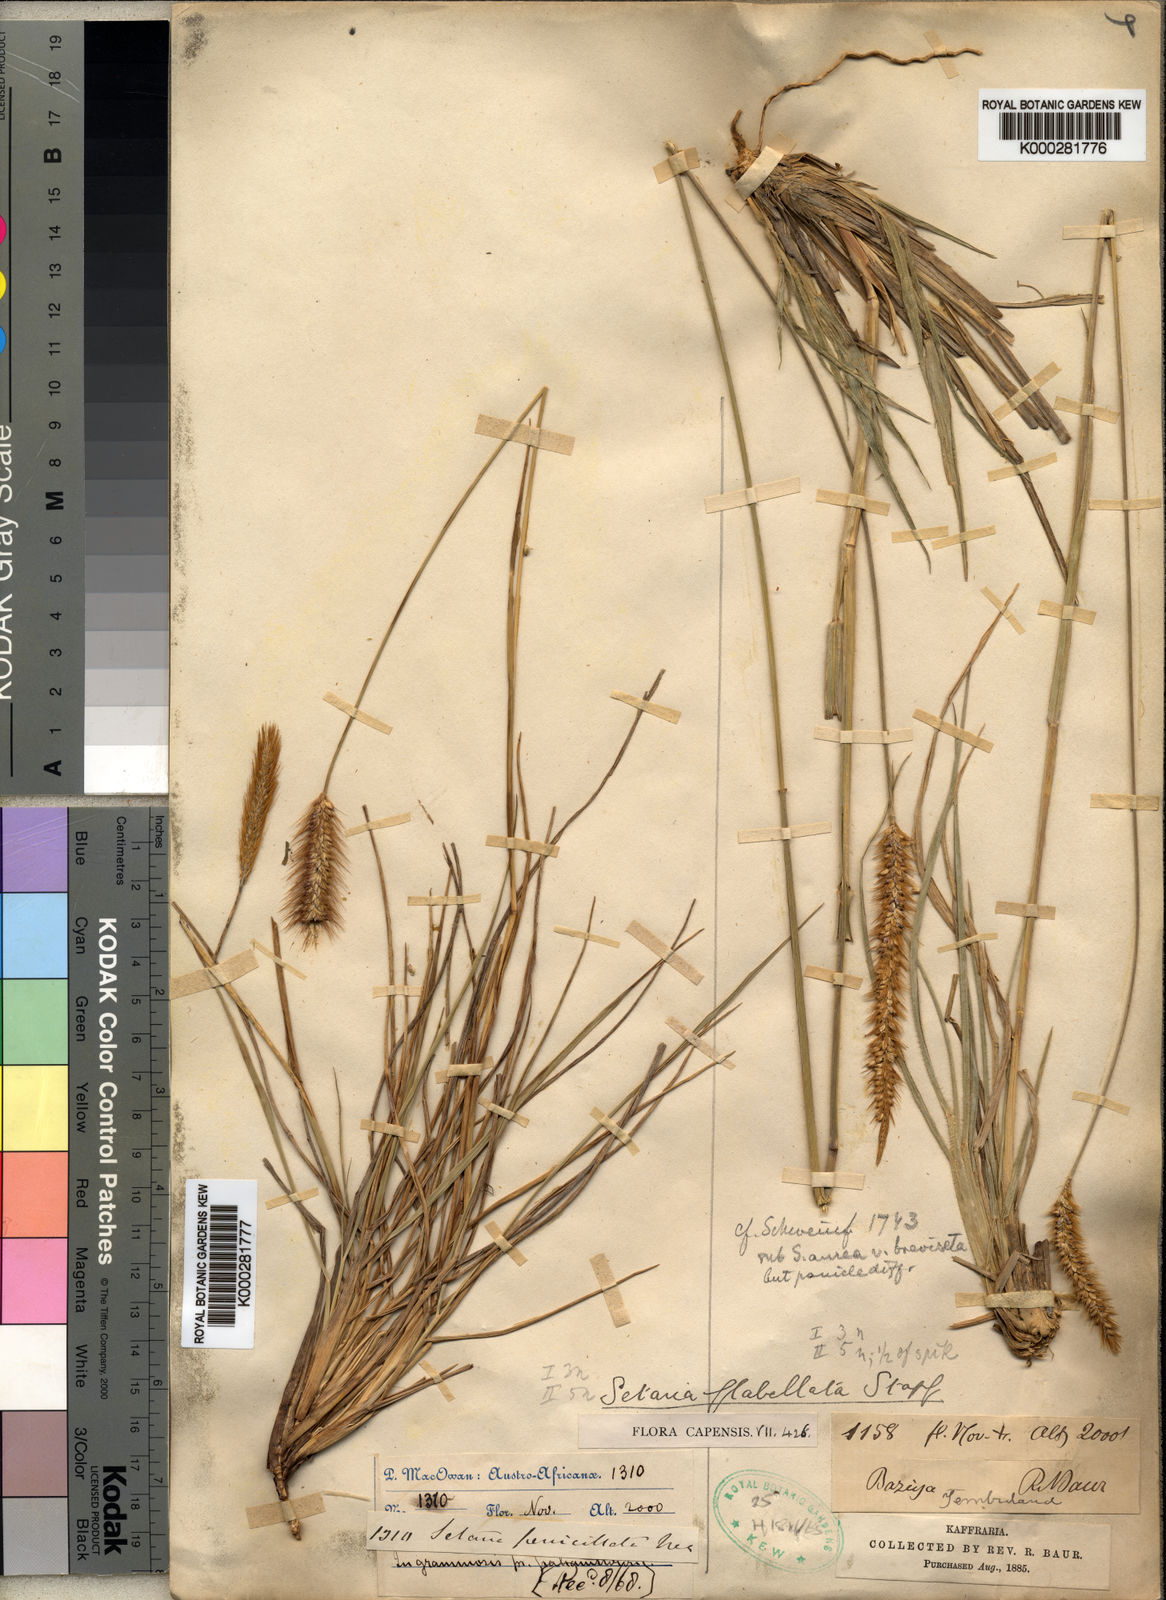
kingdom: Plantae
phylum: Tracheophyta
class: Liliopsida
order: Poales
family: Poaceae
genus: Setaria
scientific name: Setaria sphacelata
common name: African bristlegrass
